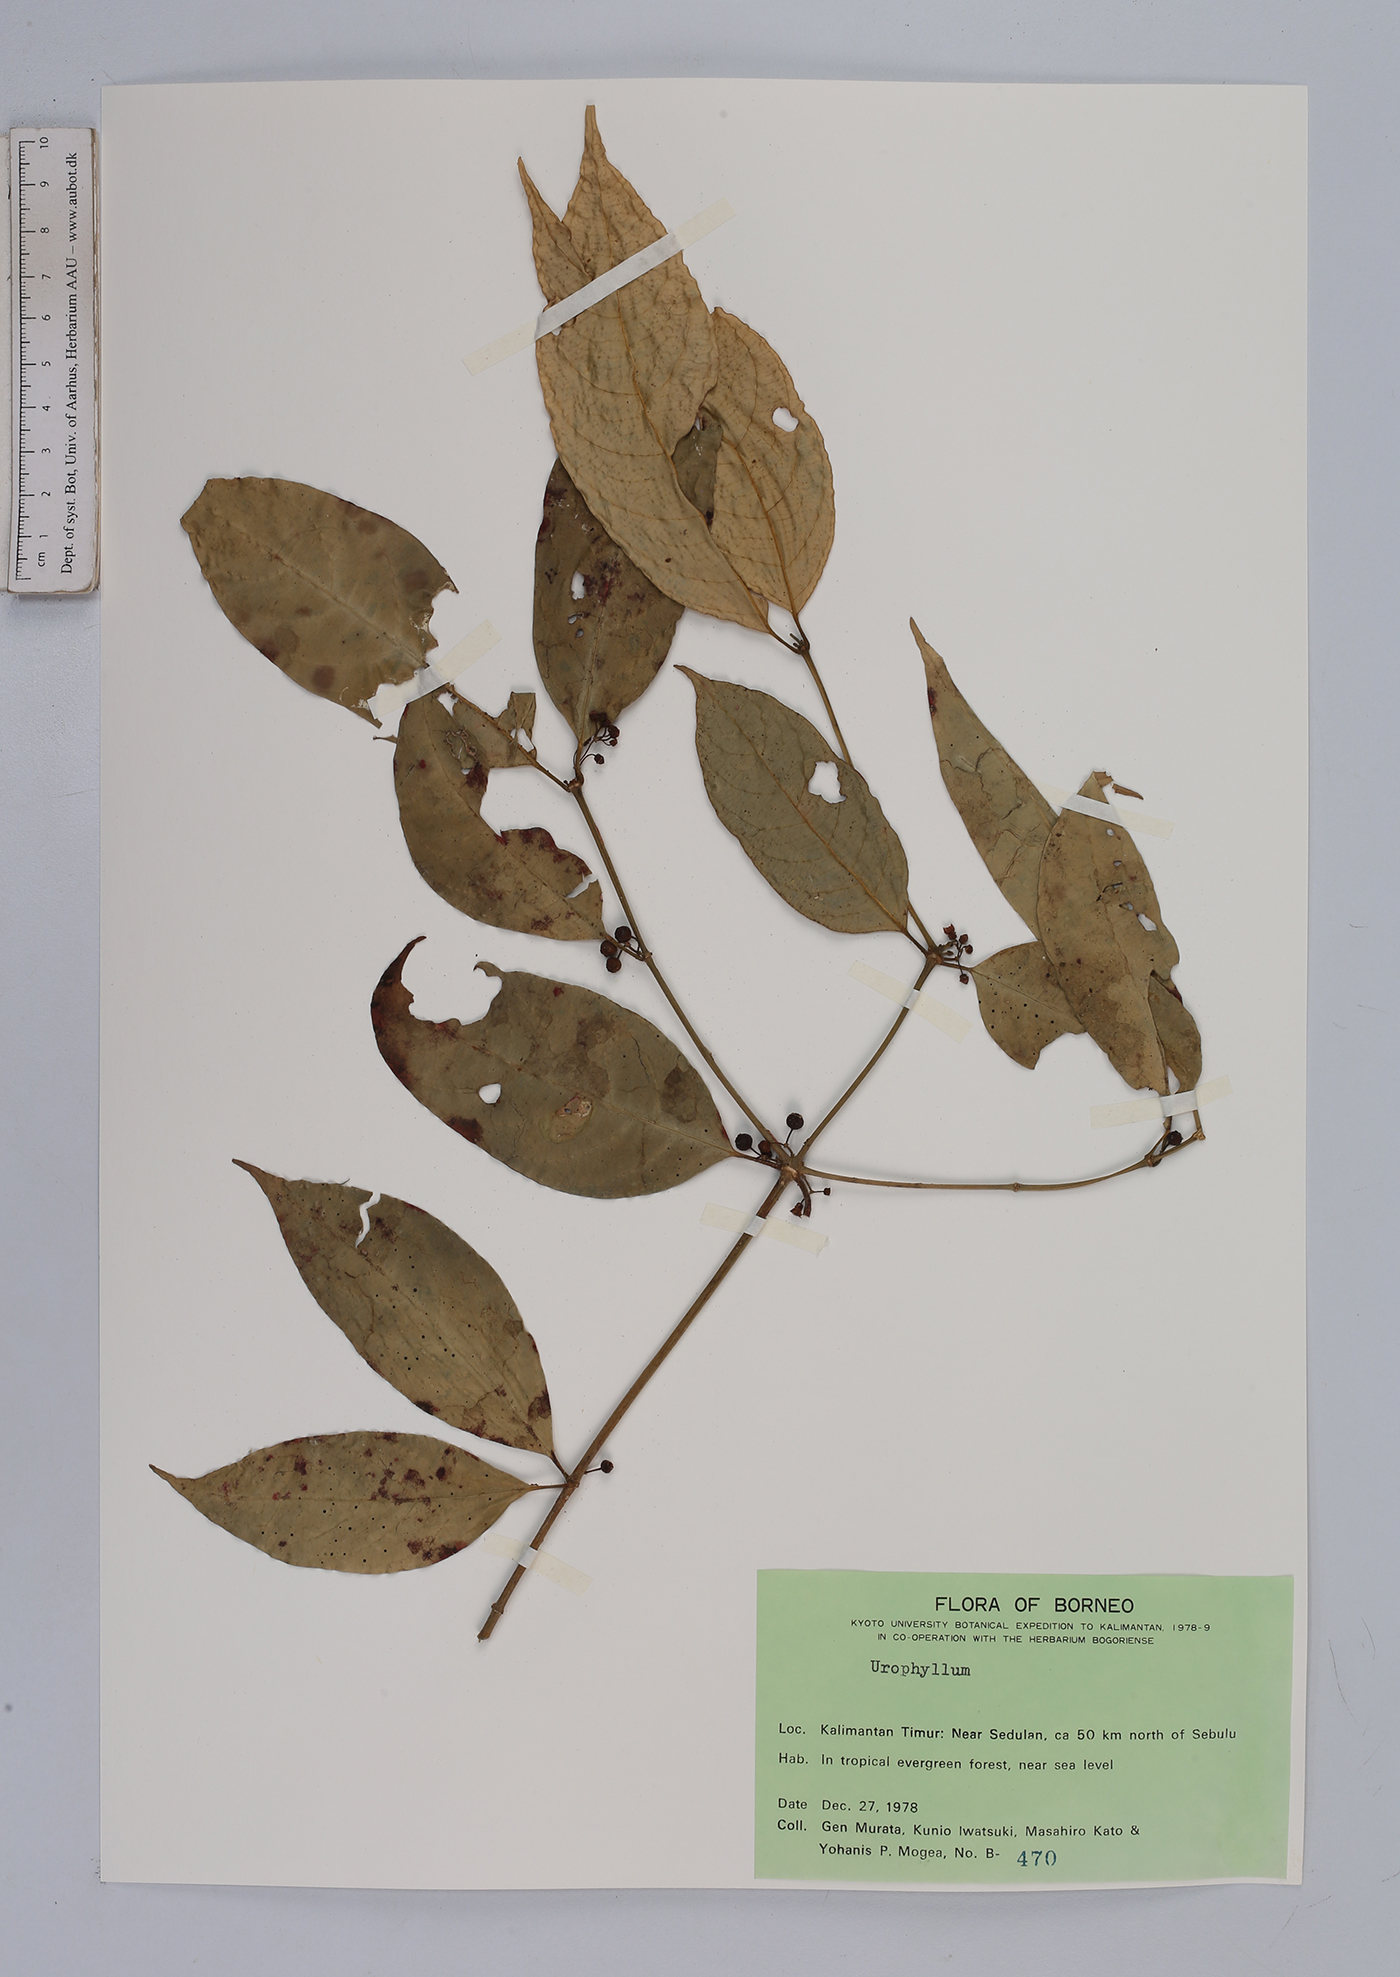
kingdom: Plantae
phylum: Tracheophyta
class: Magnoliopsida
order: Gentianales
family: Rubiaceae
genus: Urophyllum
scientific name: Urophyllum
